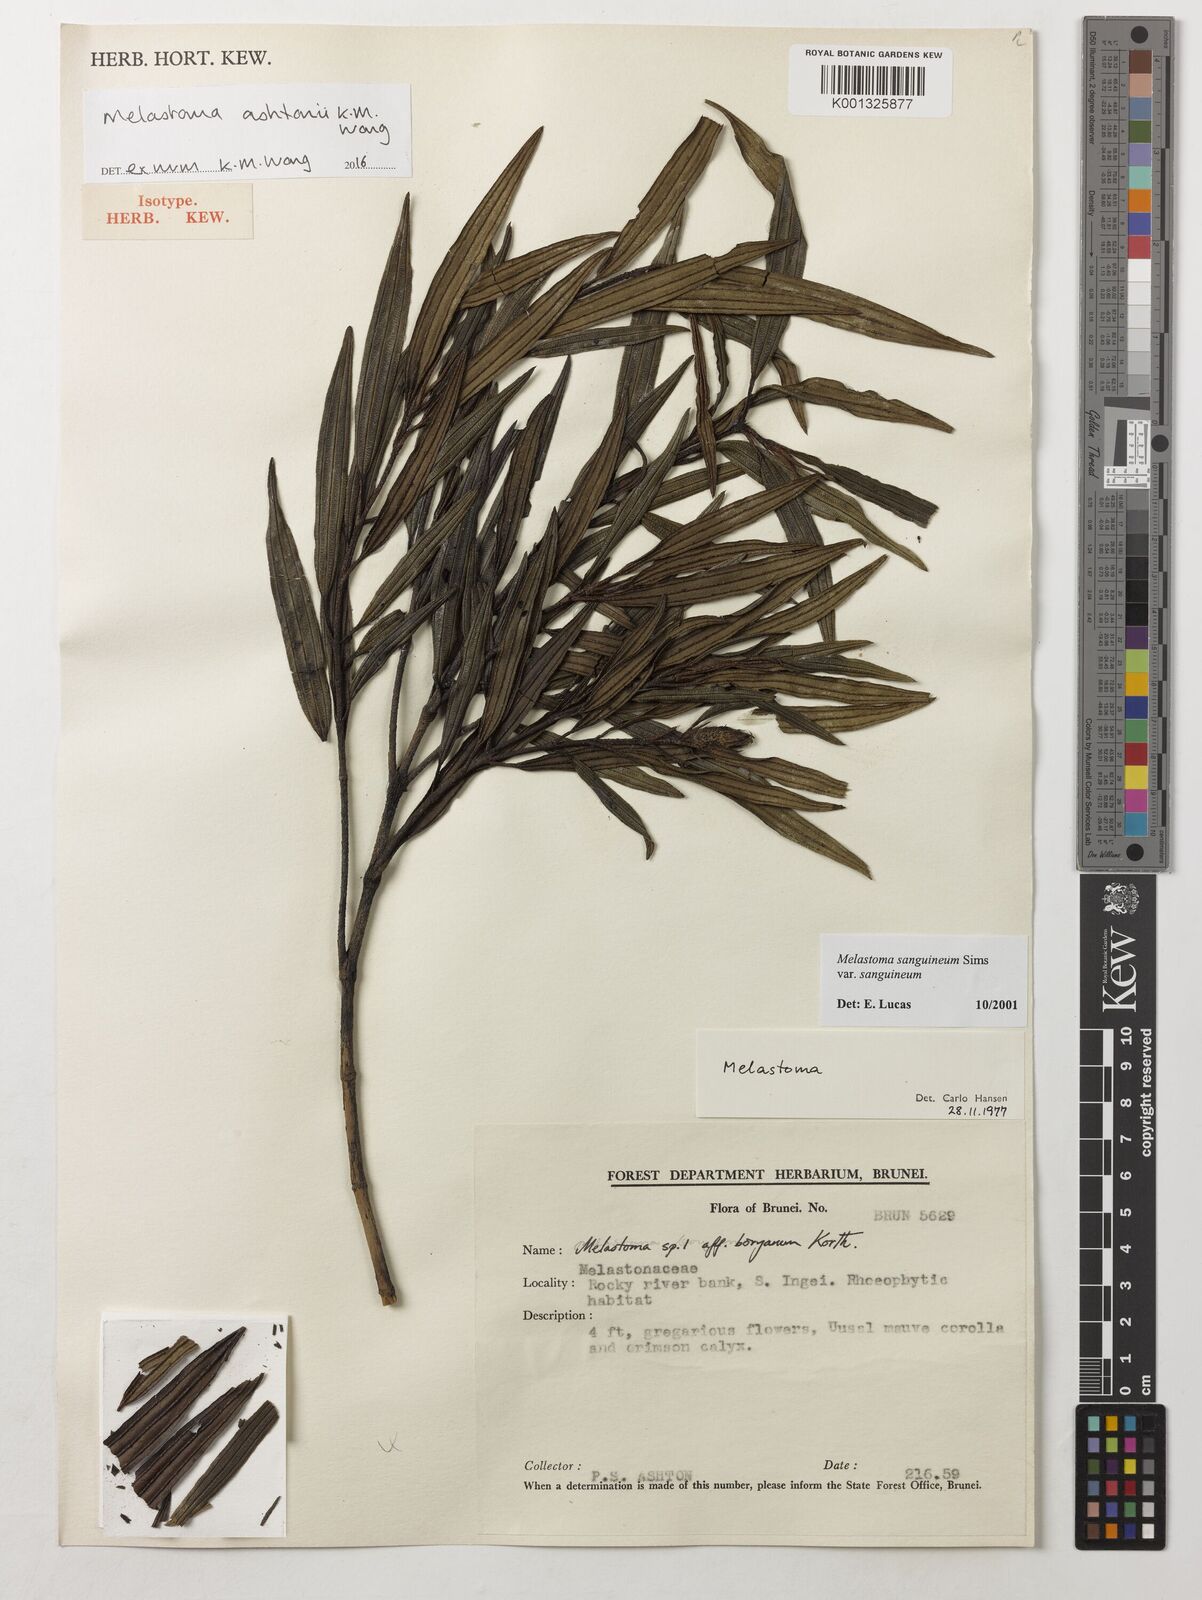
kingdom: Plantae
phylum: Tracheophyta
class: Magnoliopsida
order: Myrtales
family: Melastomataceae
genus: Melastoma
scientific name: Melastoma ashtonii
